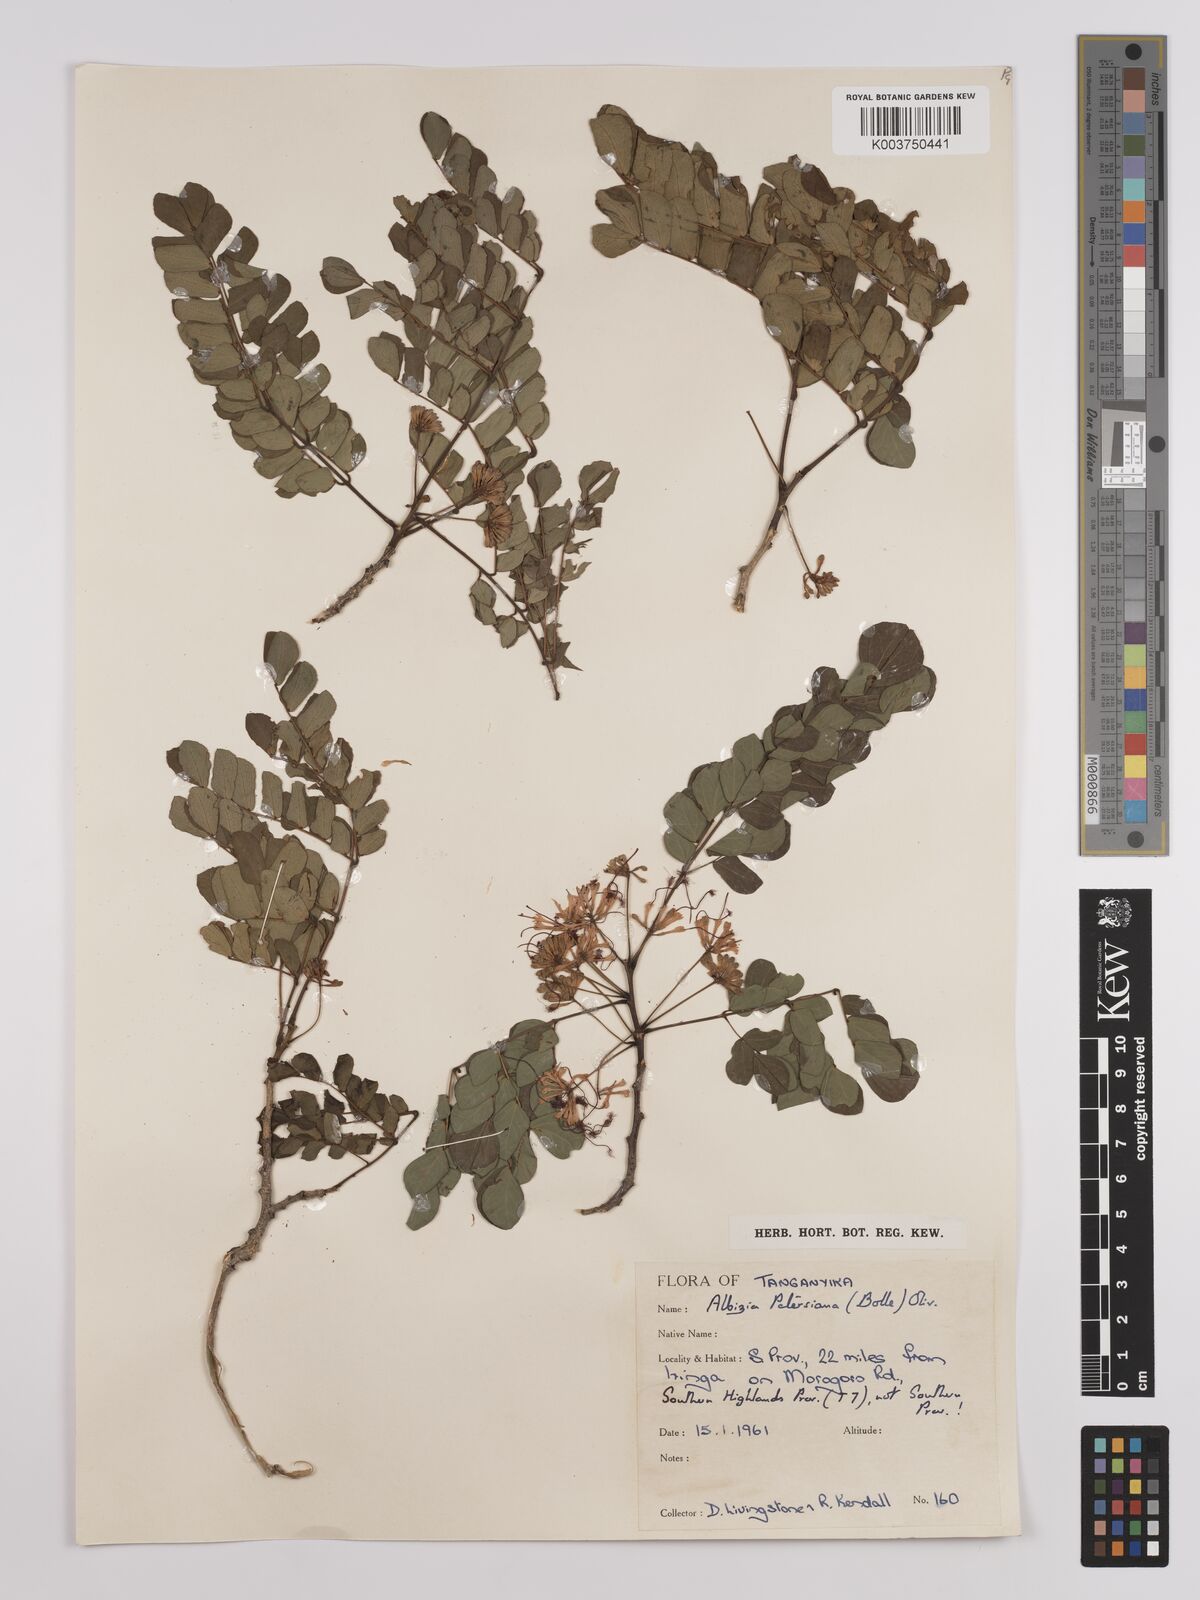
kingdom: Plantae
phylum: Tracheophyta
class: Magnoliopsida
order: Fabales
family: Fabaceae
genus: Albizia
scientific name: Albizia petersiana
